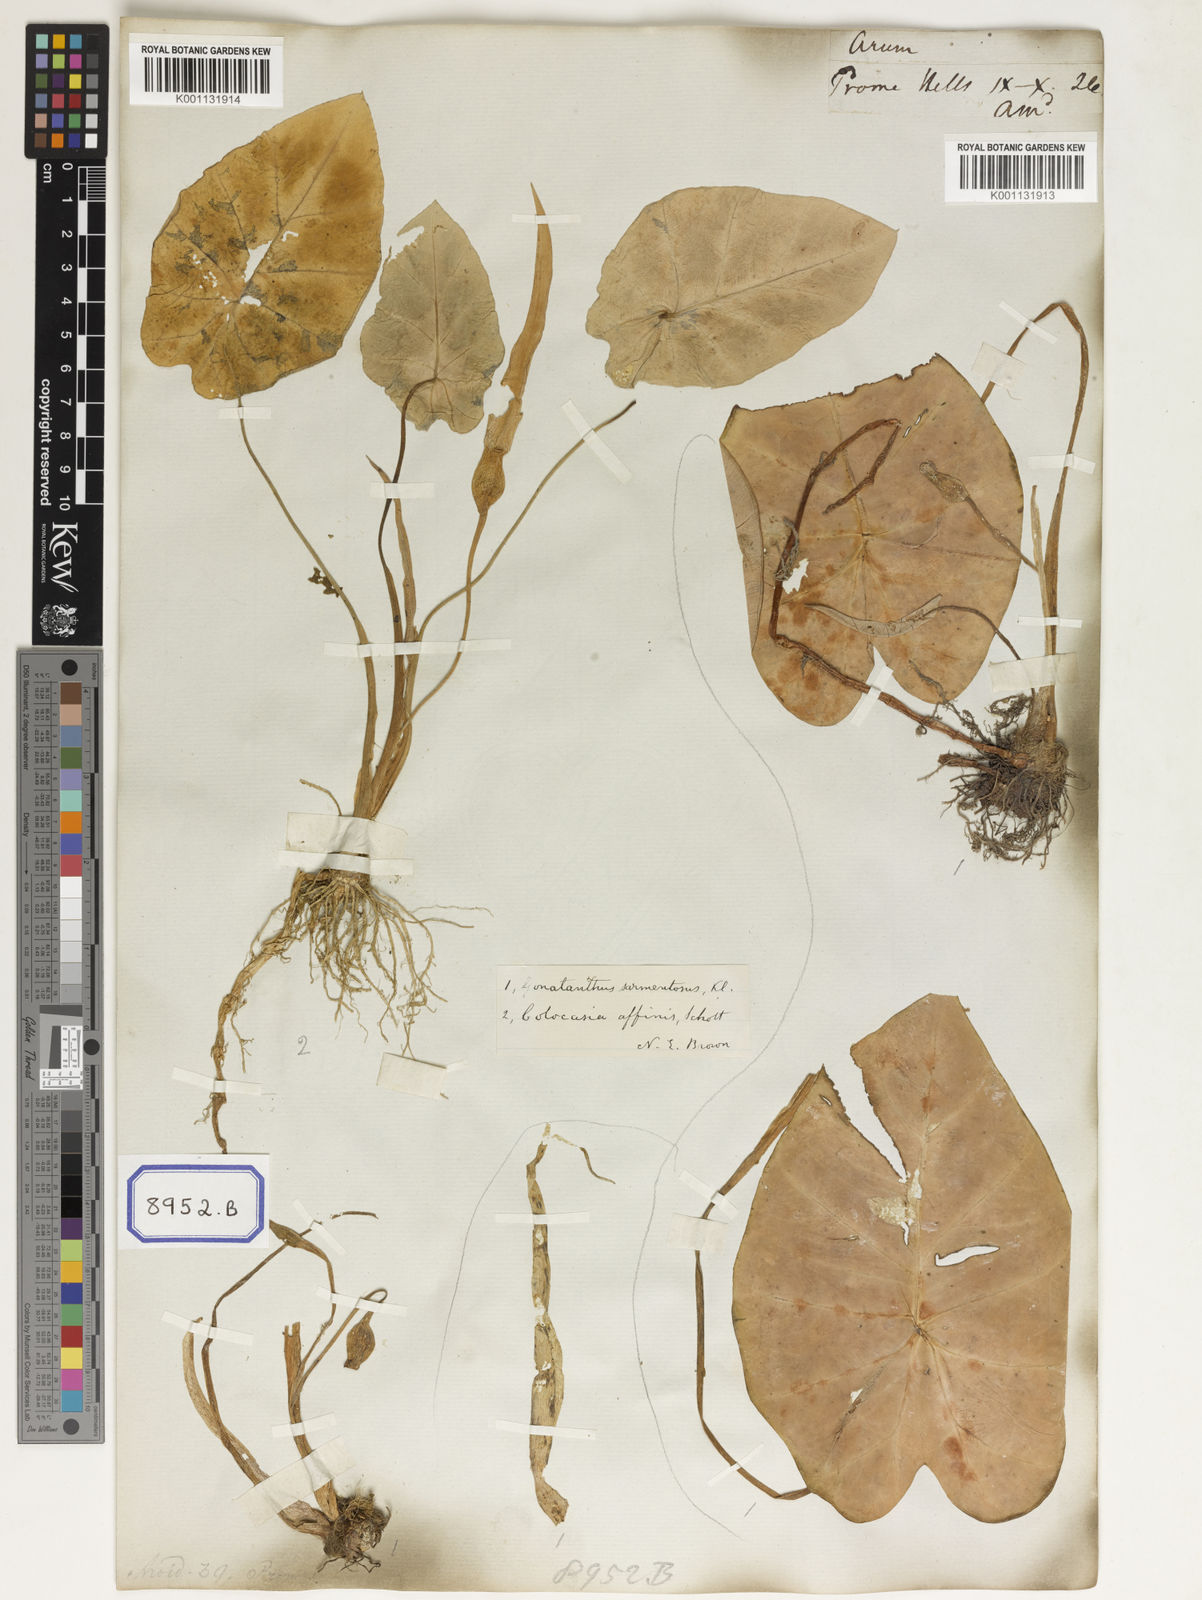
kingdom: Plantae
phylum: Tracheophyta
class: Liliopsida
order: Alismatales
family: Araceae
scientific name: Araceae
